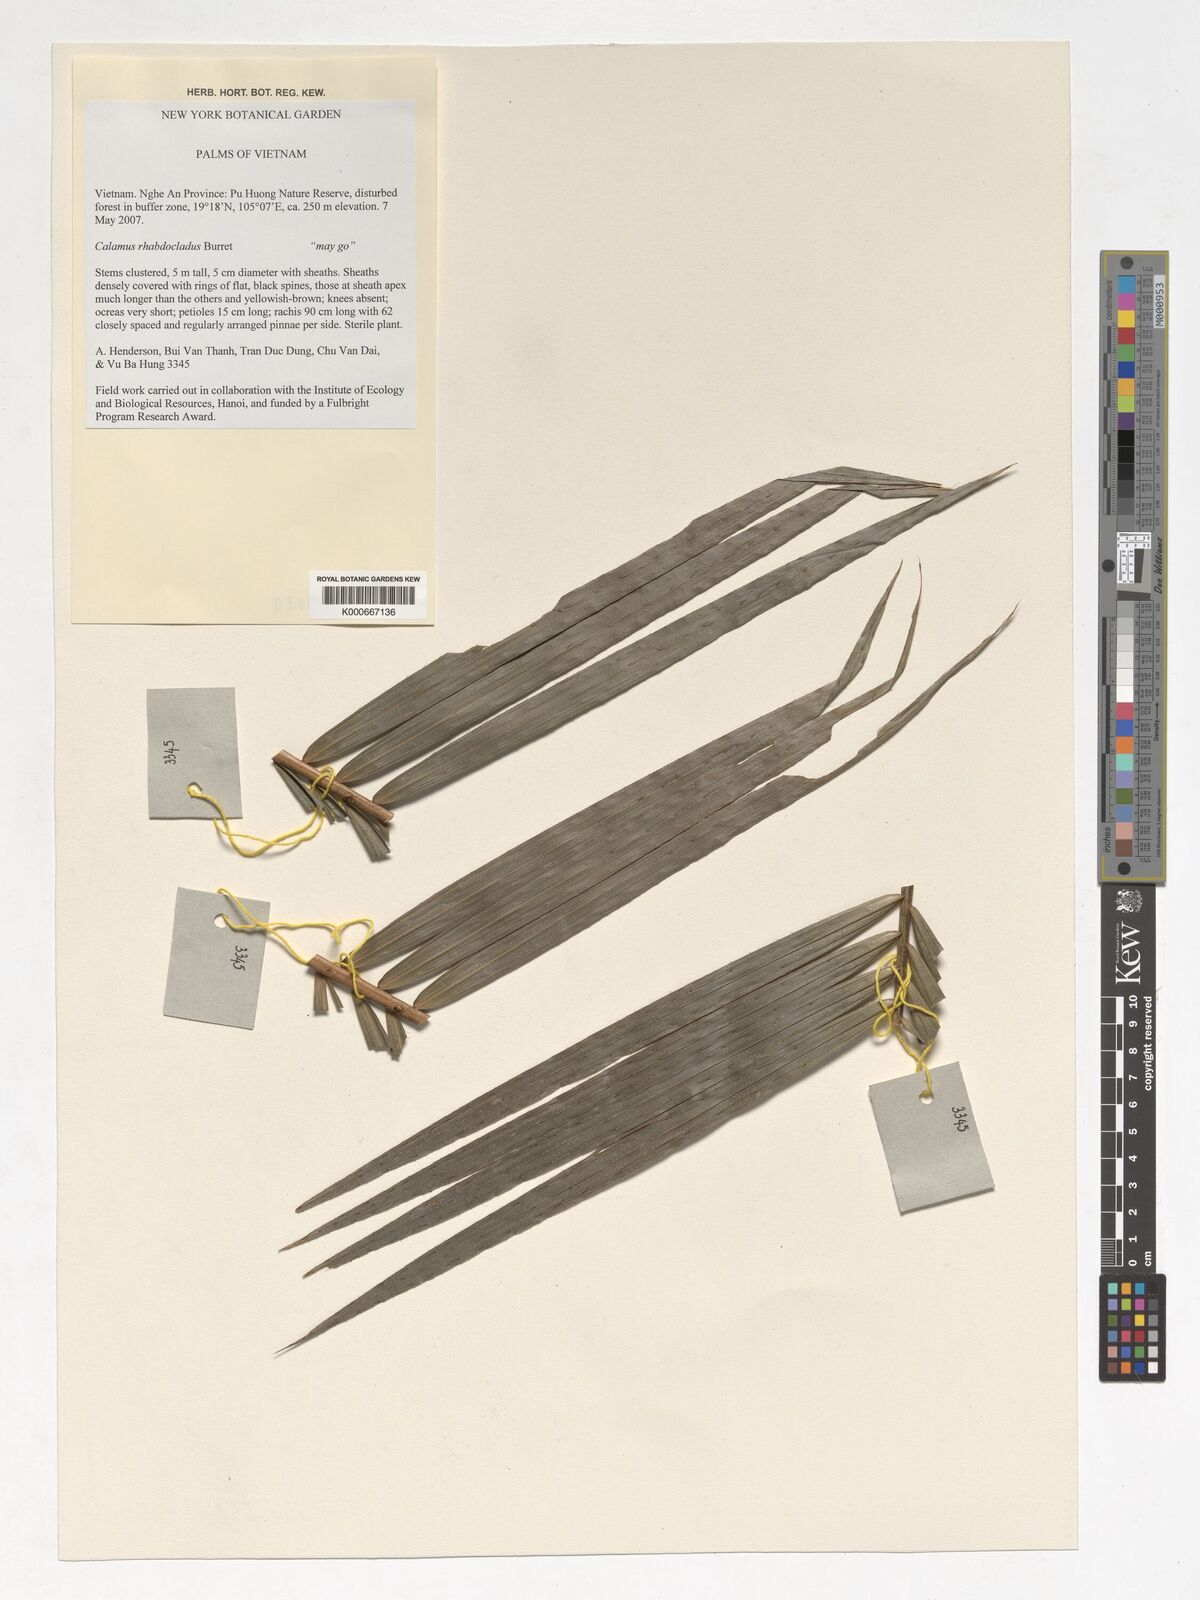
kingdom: Plantae
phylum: Tracheophyta
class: Liliopsida
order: Arecales
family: Arecaceae
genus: Calamus
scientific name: Calamus rhabdocladus
